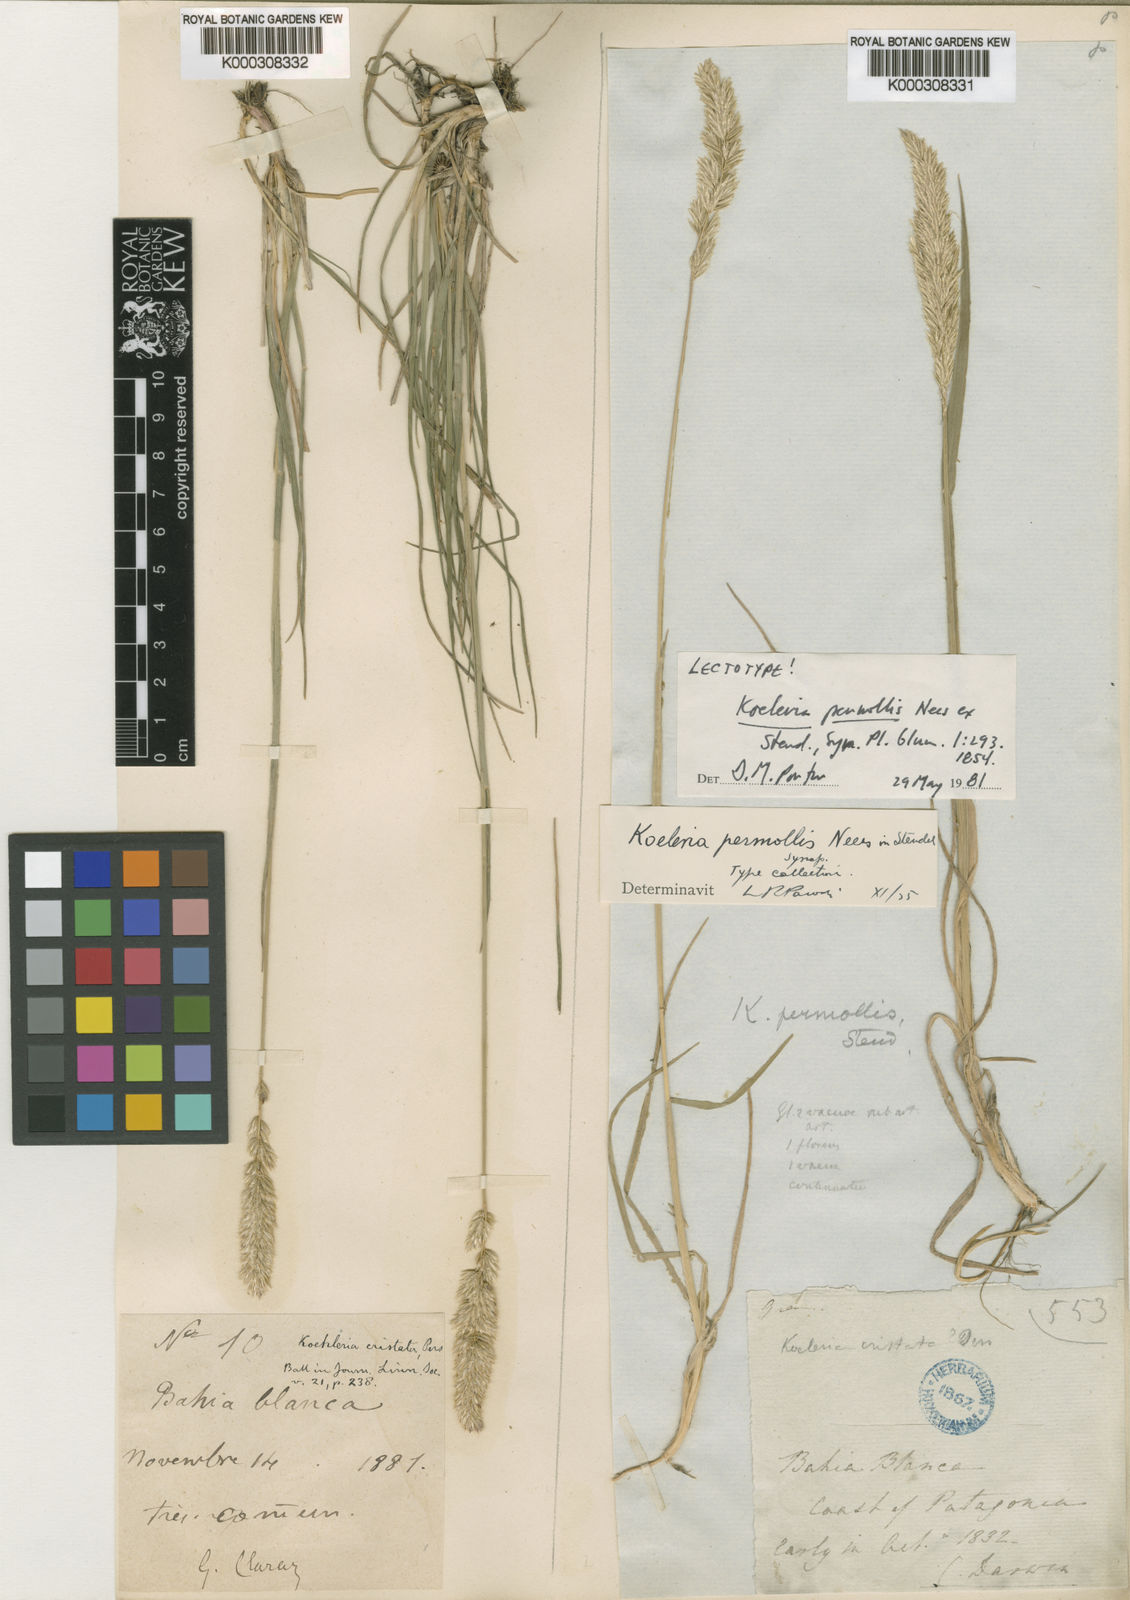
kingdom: Plantae
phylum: Tracheophyta
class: Liliopsida
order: Poales
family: Poaceae
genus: Koeleria
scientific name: Koeleria permollis
